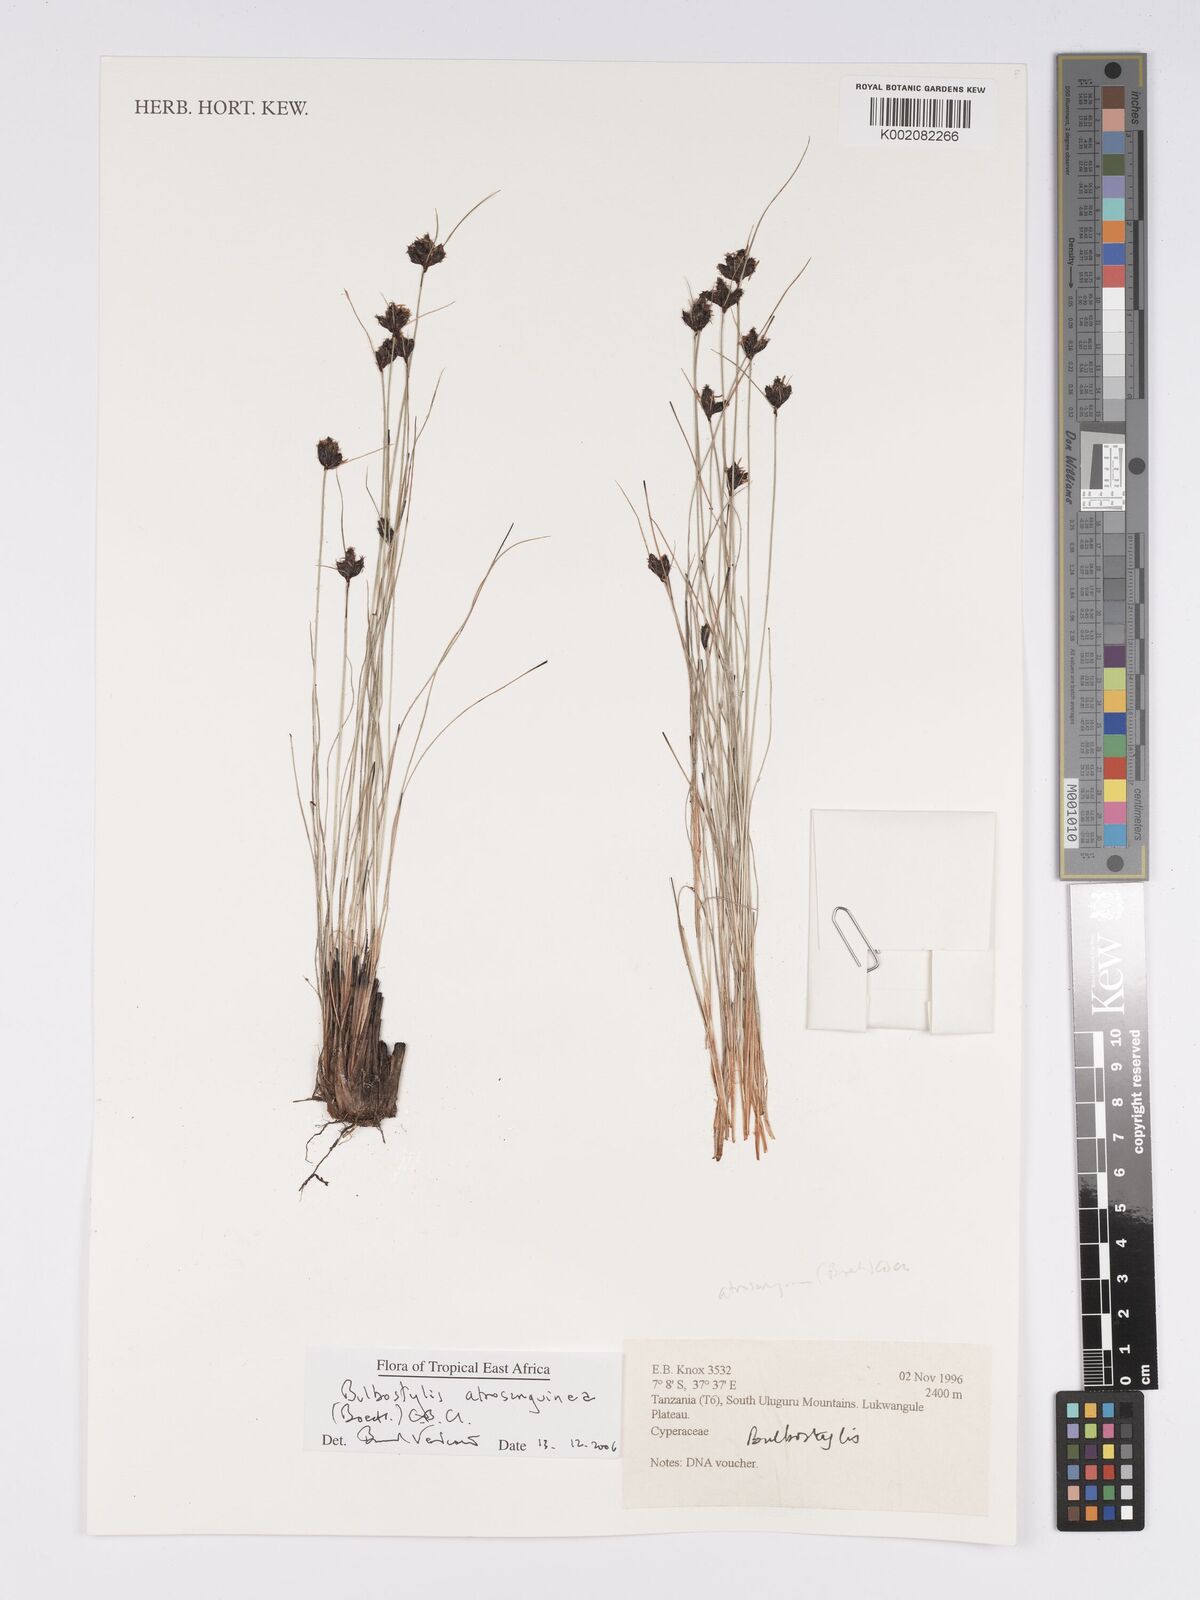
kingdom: Plantae
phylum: Tracheophyta
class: Liliopsida
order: Poales
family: Cyperaceae
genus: Bulbostylis
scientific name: Bulbostylis atrosanguinea
